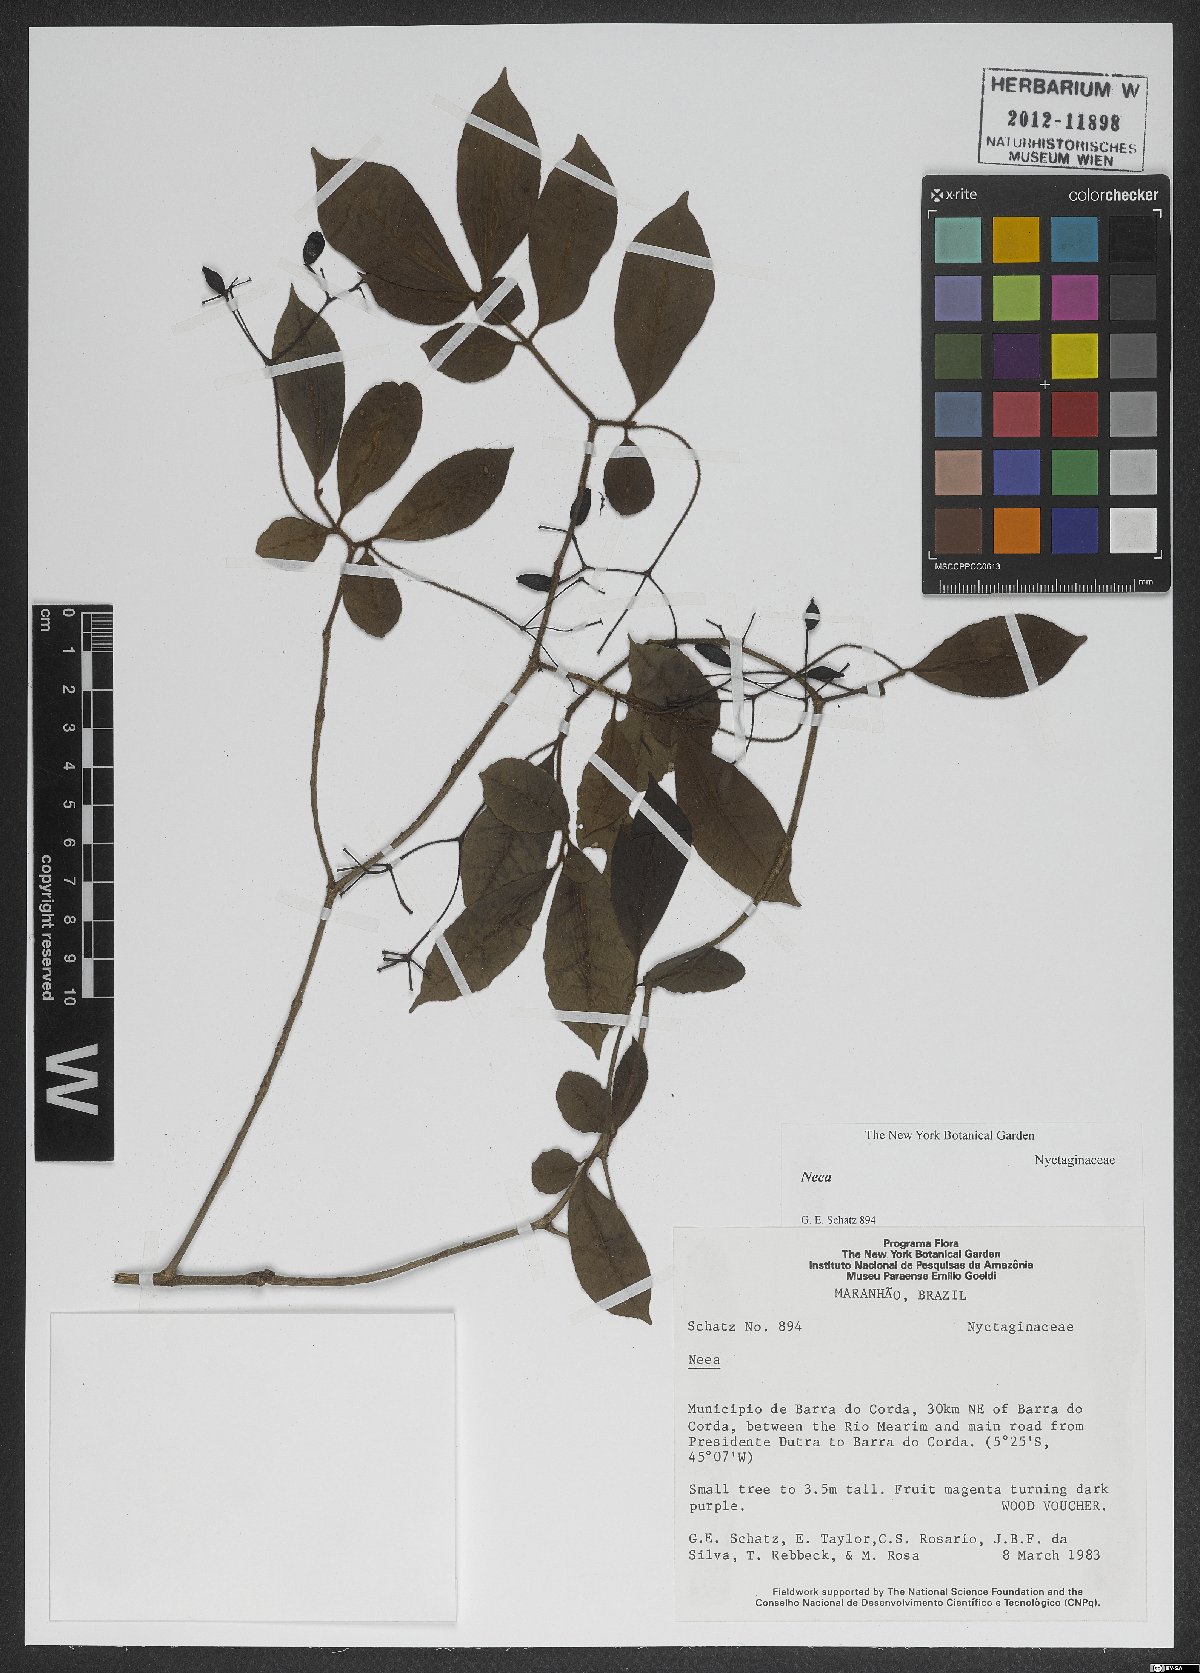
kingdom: Plantae
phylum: Tracheophyta
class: Magnoliopsida
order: Caryophyllales
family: Nyctaginaceae
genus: Neea
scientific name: Neea
